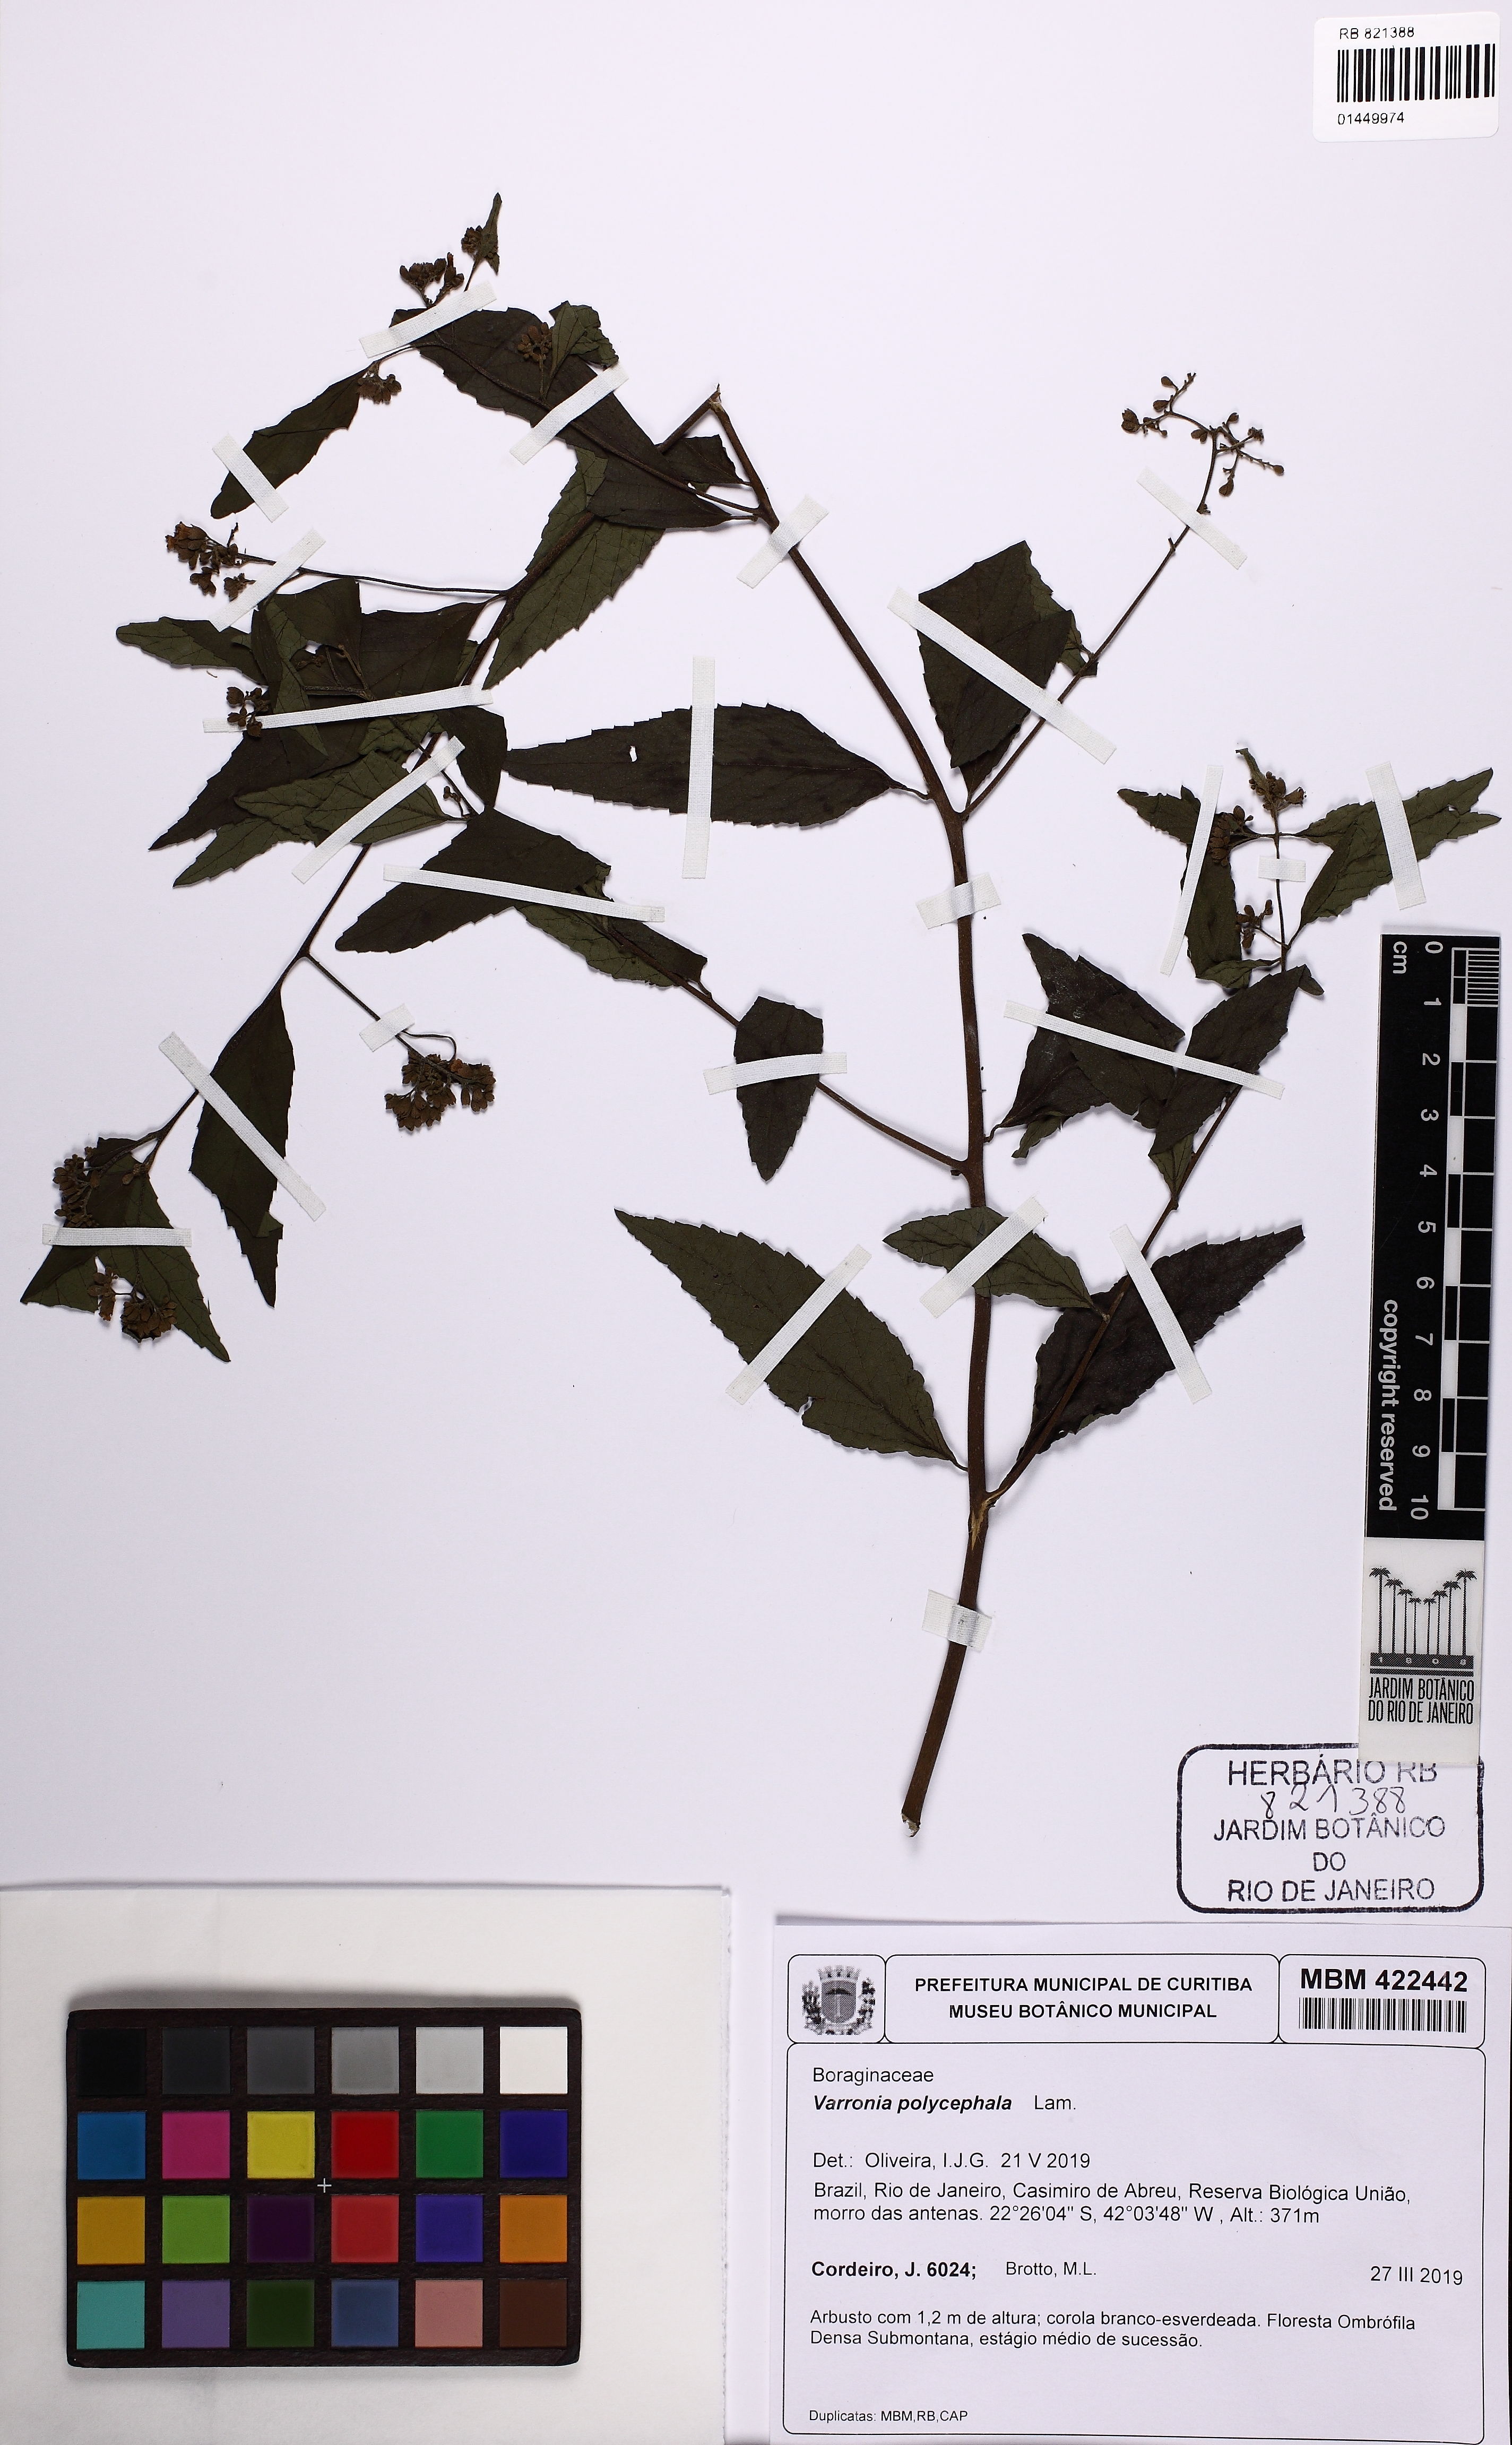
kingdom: Plantae
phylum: Tracheophyta
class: Magnoliopsida
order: Boraginales
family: Cordiaceae
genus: Varronia
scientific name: Varronia polycephala
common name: Black-sage
